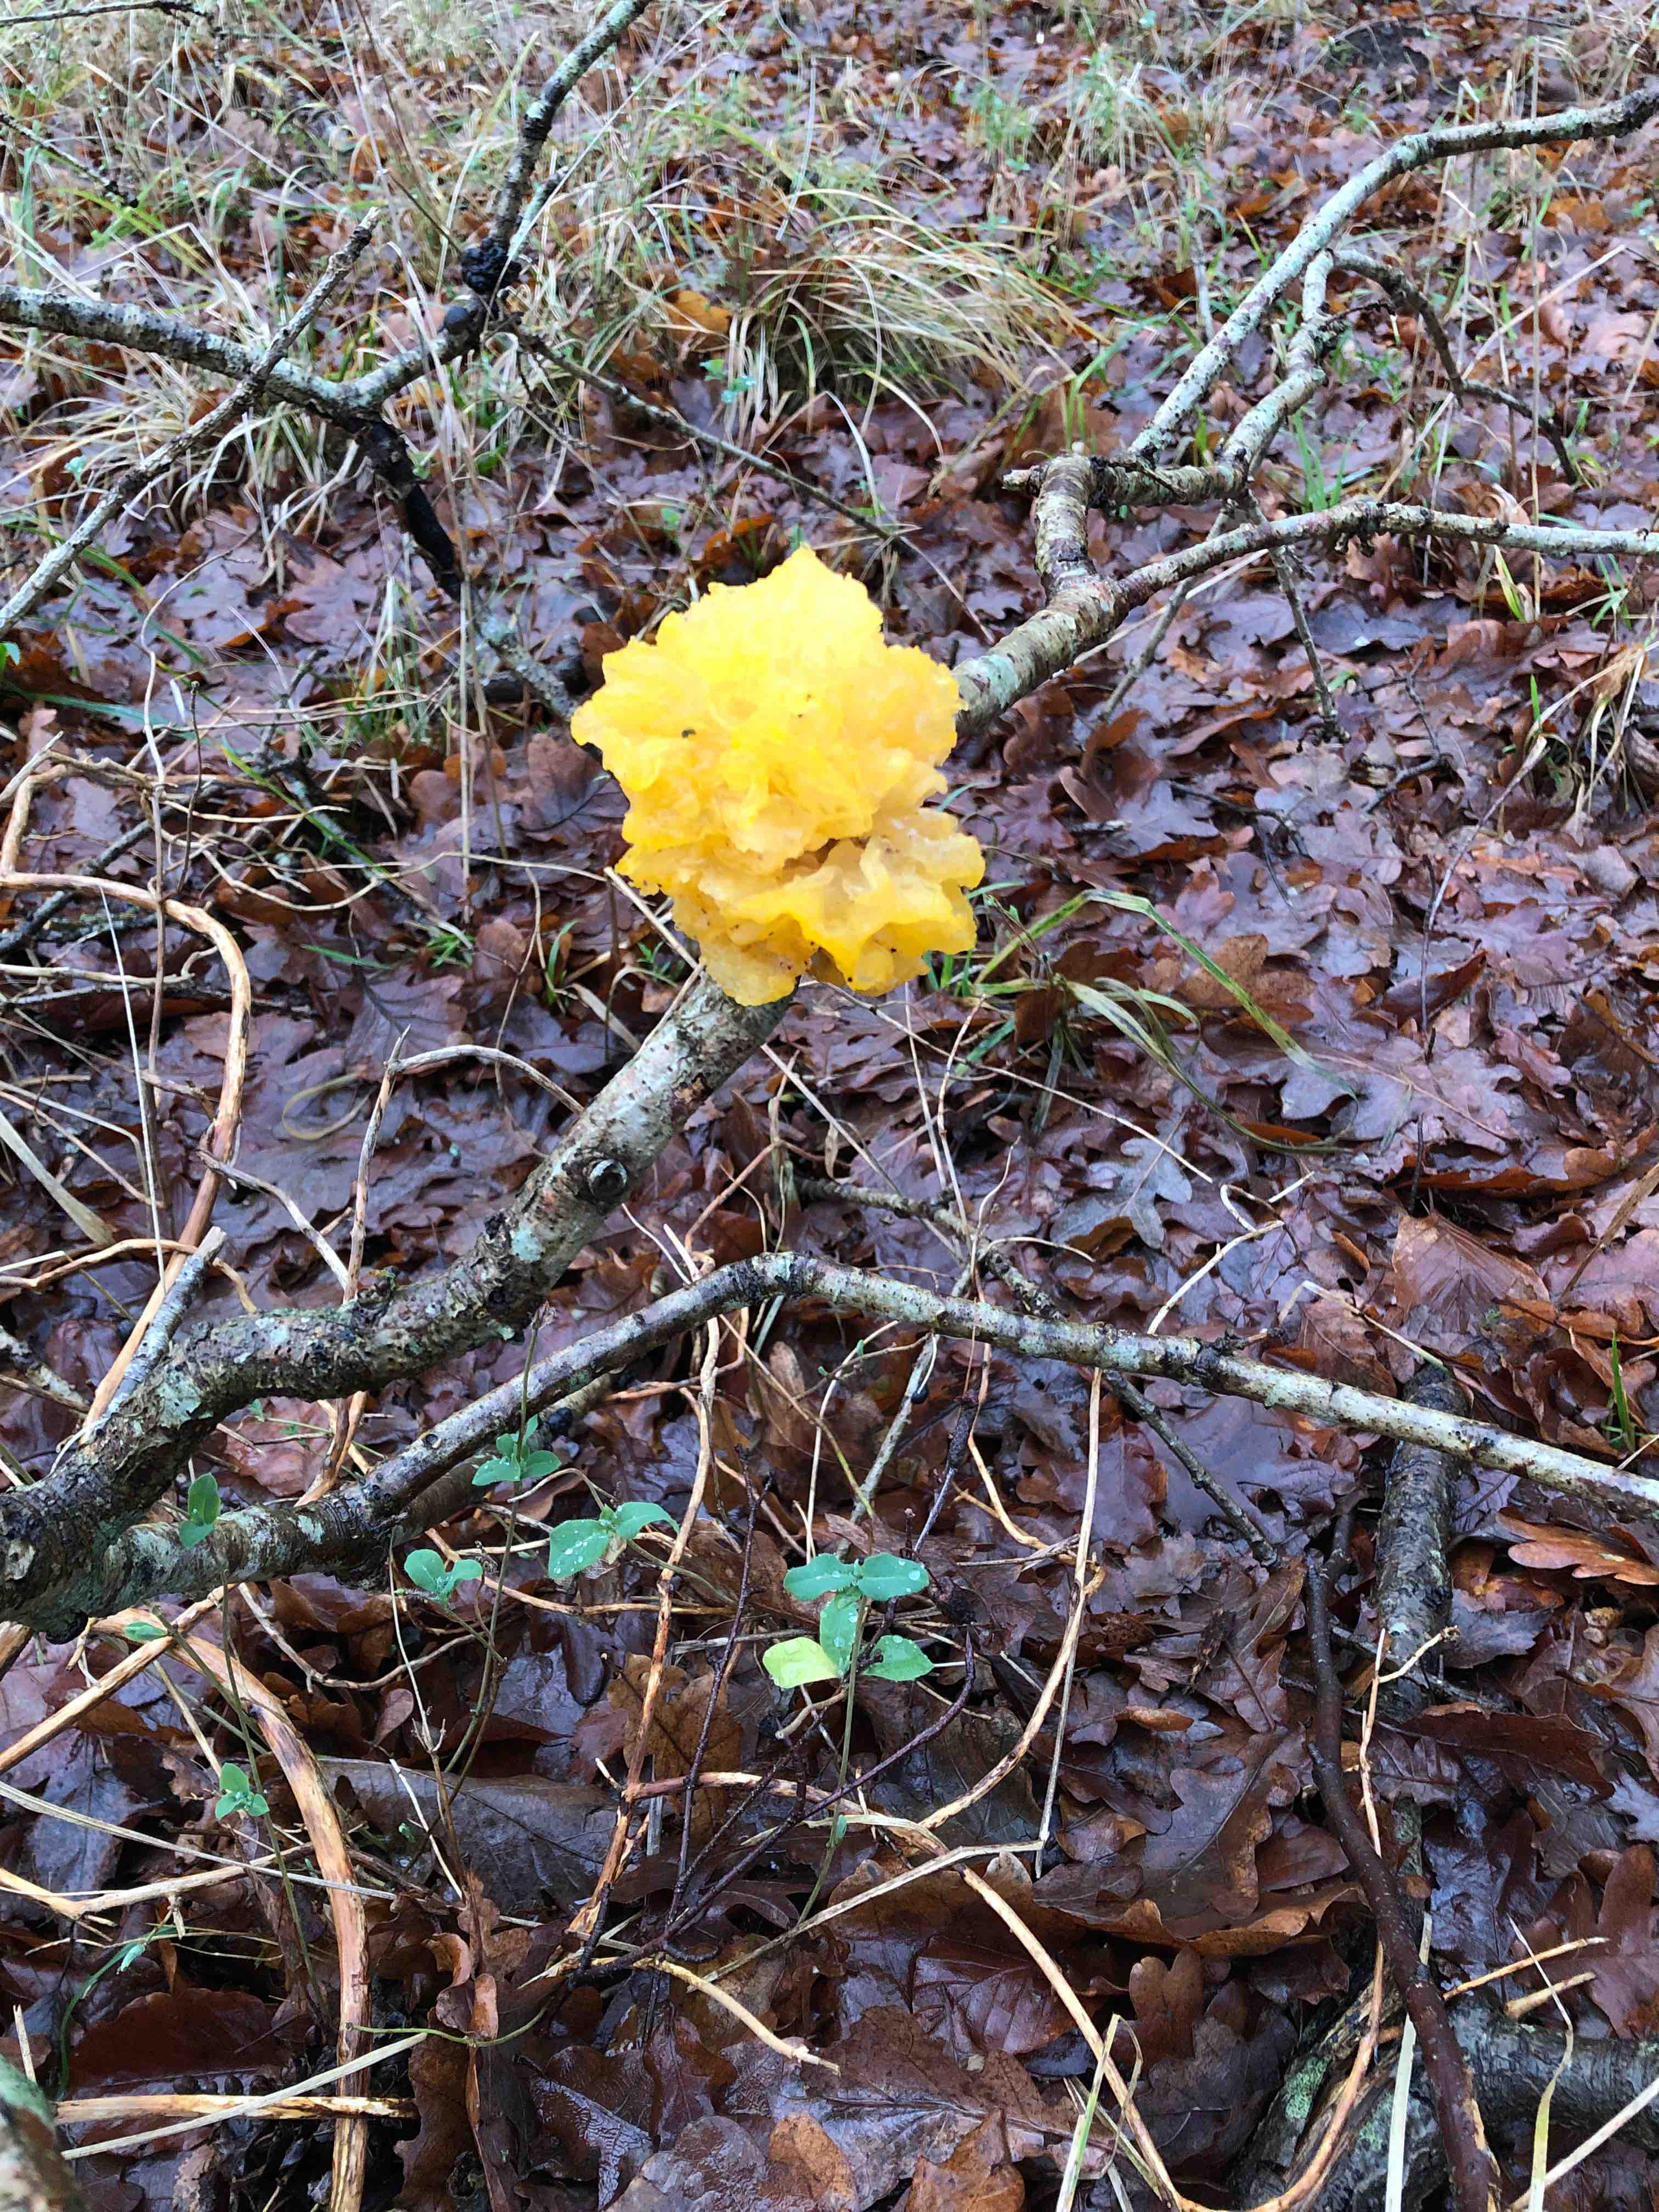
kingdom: Fungi
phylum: Basidiomycota
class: Tremellomycetes
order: Tremellales
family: Tremellaceae
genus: Tremella
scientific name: Tremella mesenterica
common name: gul bævresvamp
